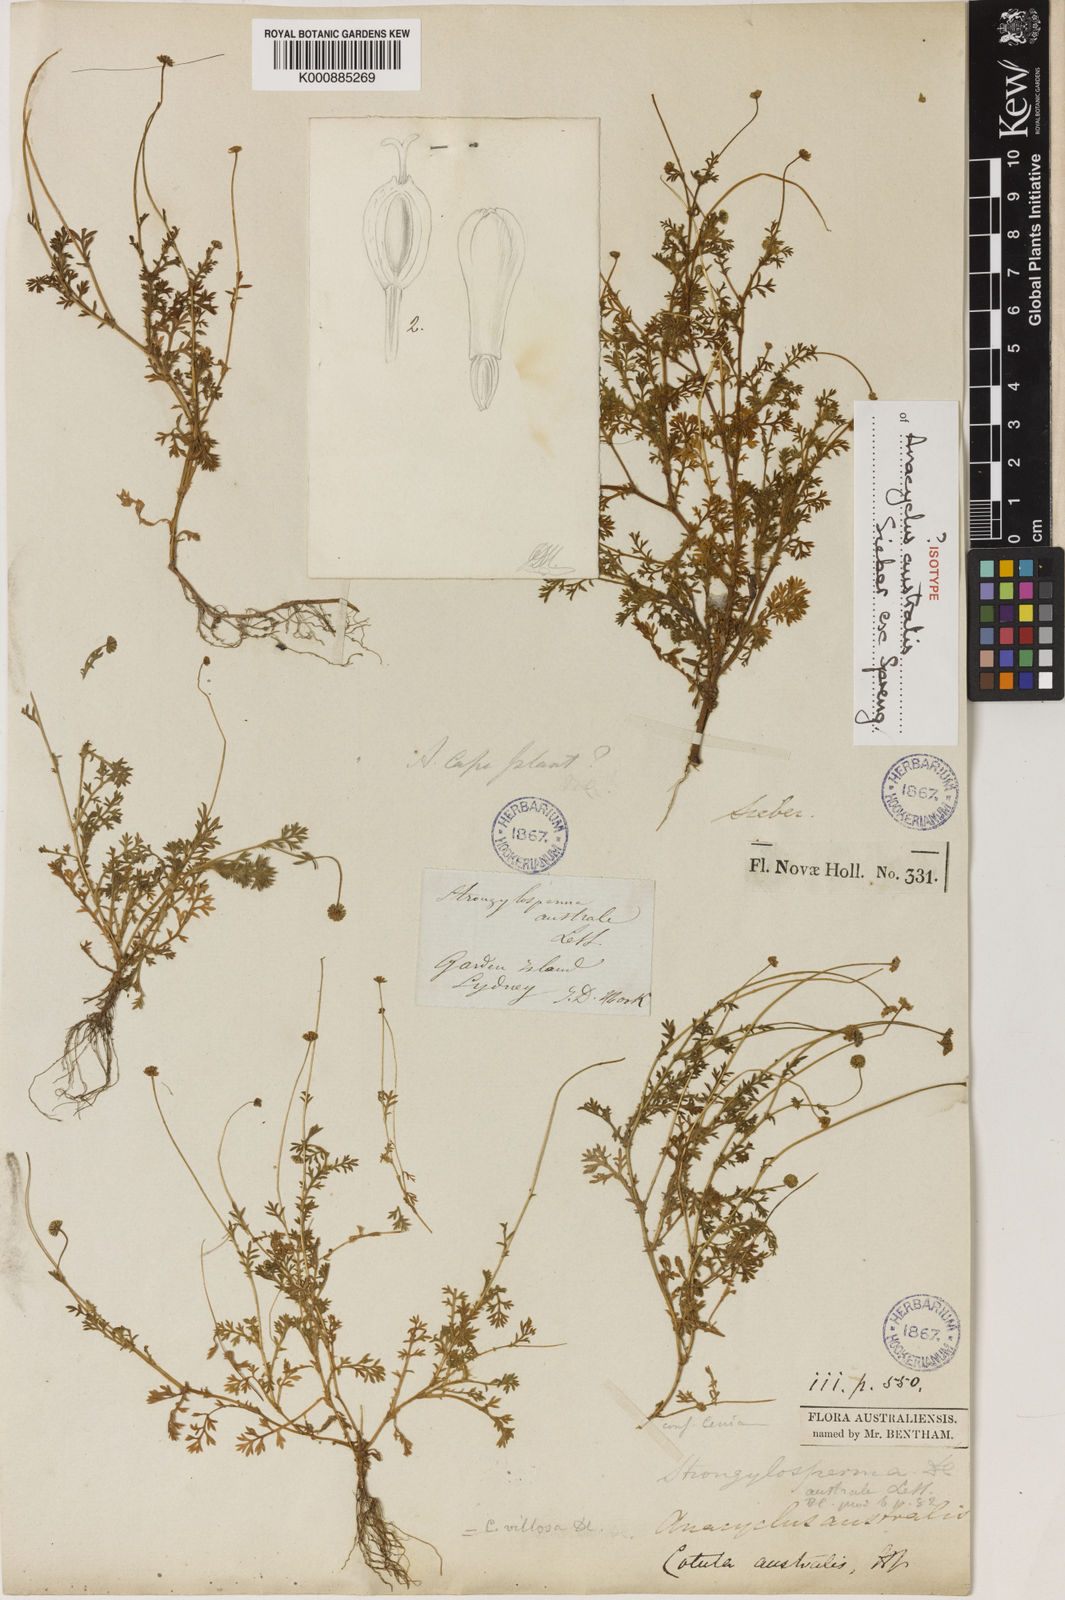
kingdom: Plantae
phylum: Tracheophyta
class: Magnoliopsida
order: Asterales
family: Asteraceae
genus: Cotula
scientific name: Cotula australis
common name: Australian waterbuttons
